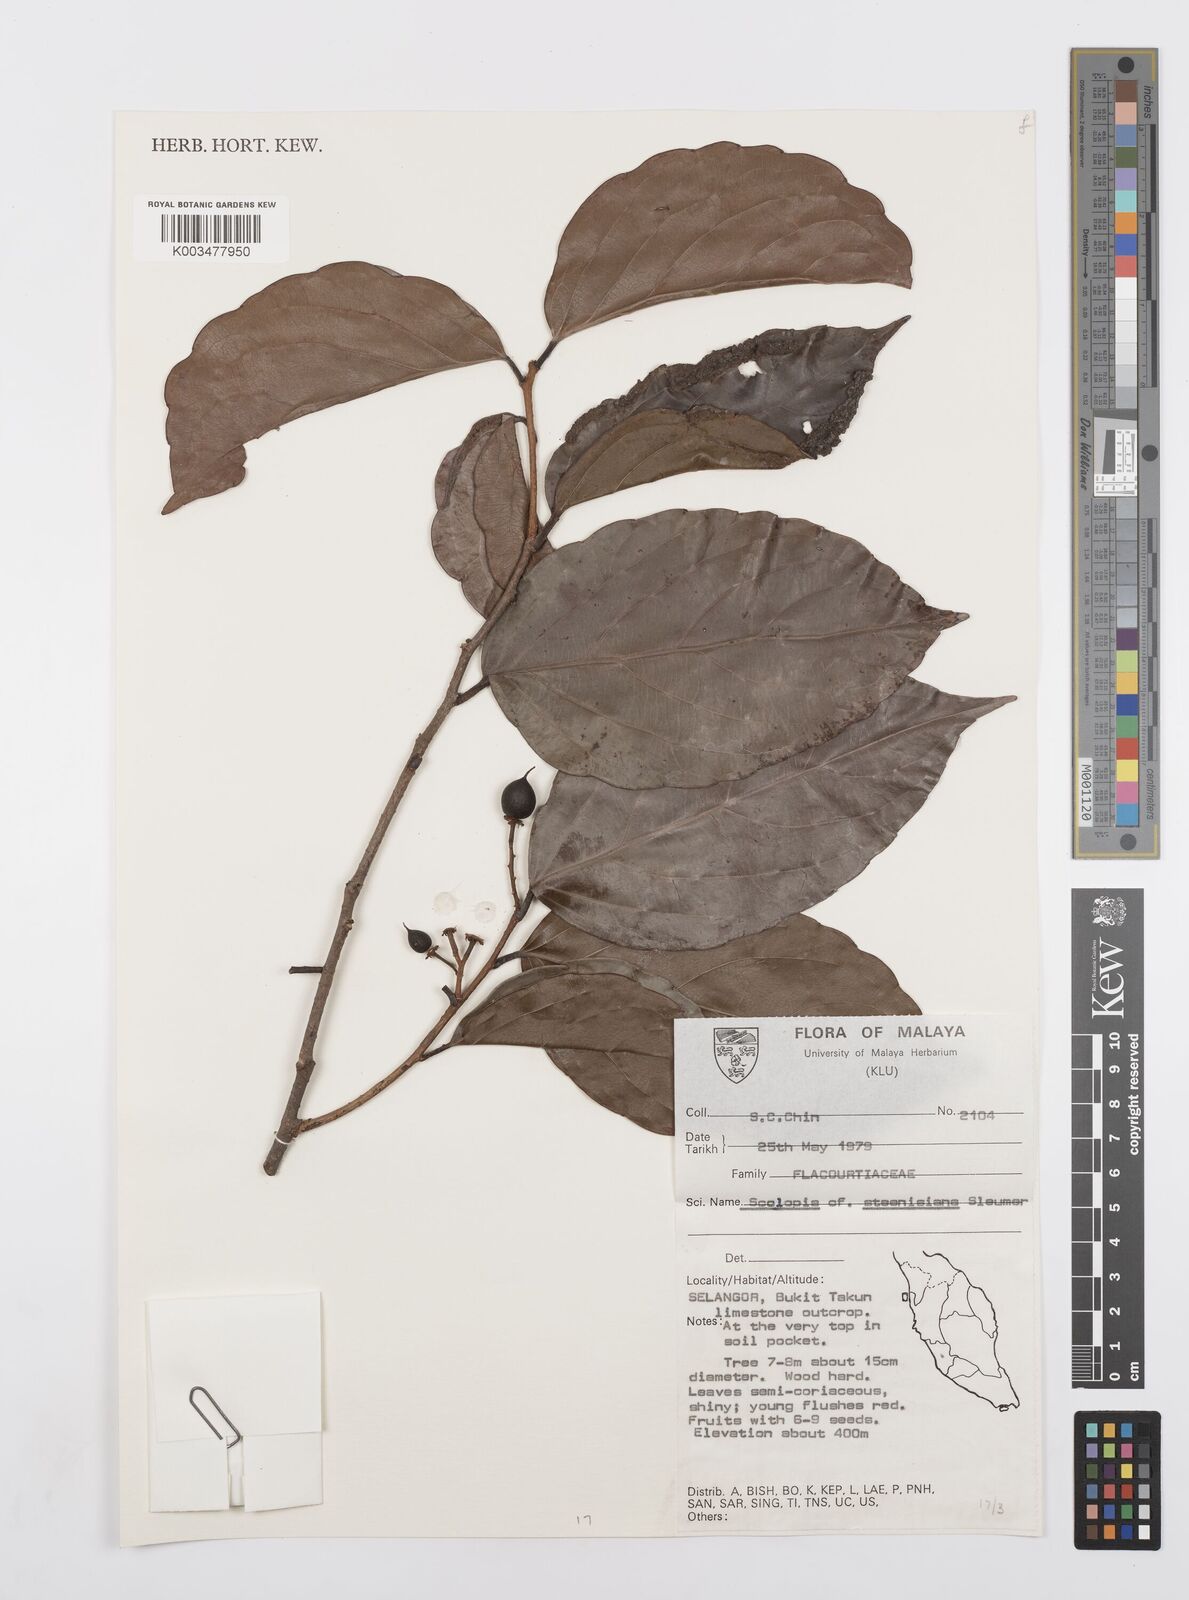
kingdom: Plantae
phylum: Tracheophyta
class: Magnoliopsida
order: Malpighiales
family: Salicaceae
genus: Scolopia
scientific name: Scolopia steenisiana
